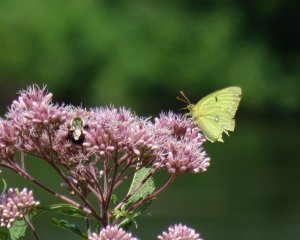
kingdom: Animalia
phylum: Arthropoda
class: Insecta
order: Lepidoptera
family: Pieridae
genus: Colias
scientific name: Colias philodice
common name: Clouded Sulphur
